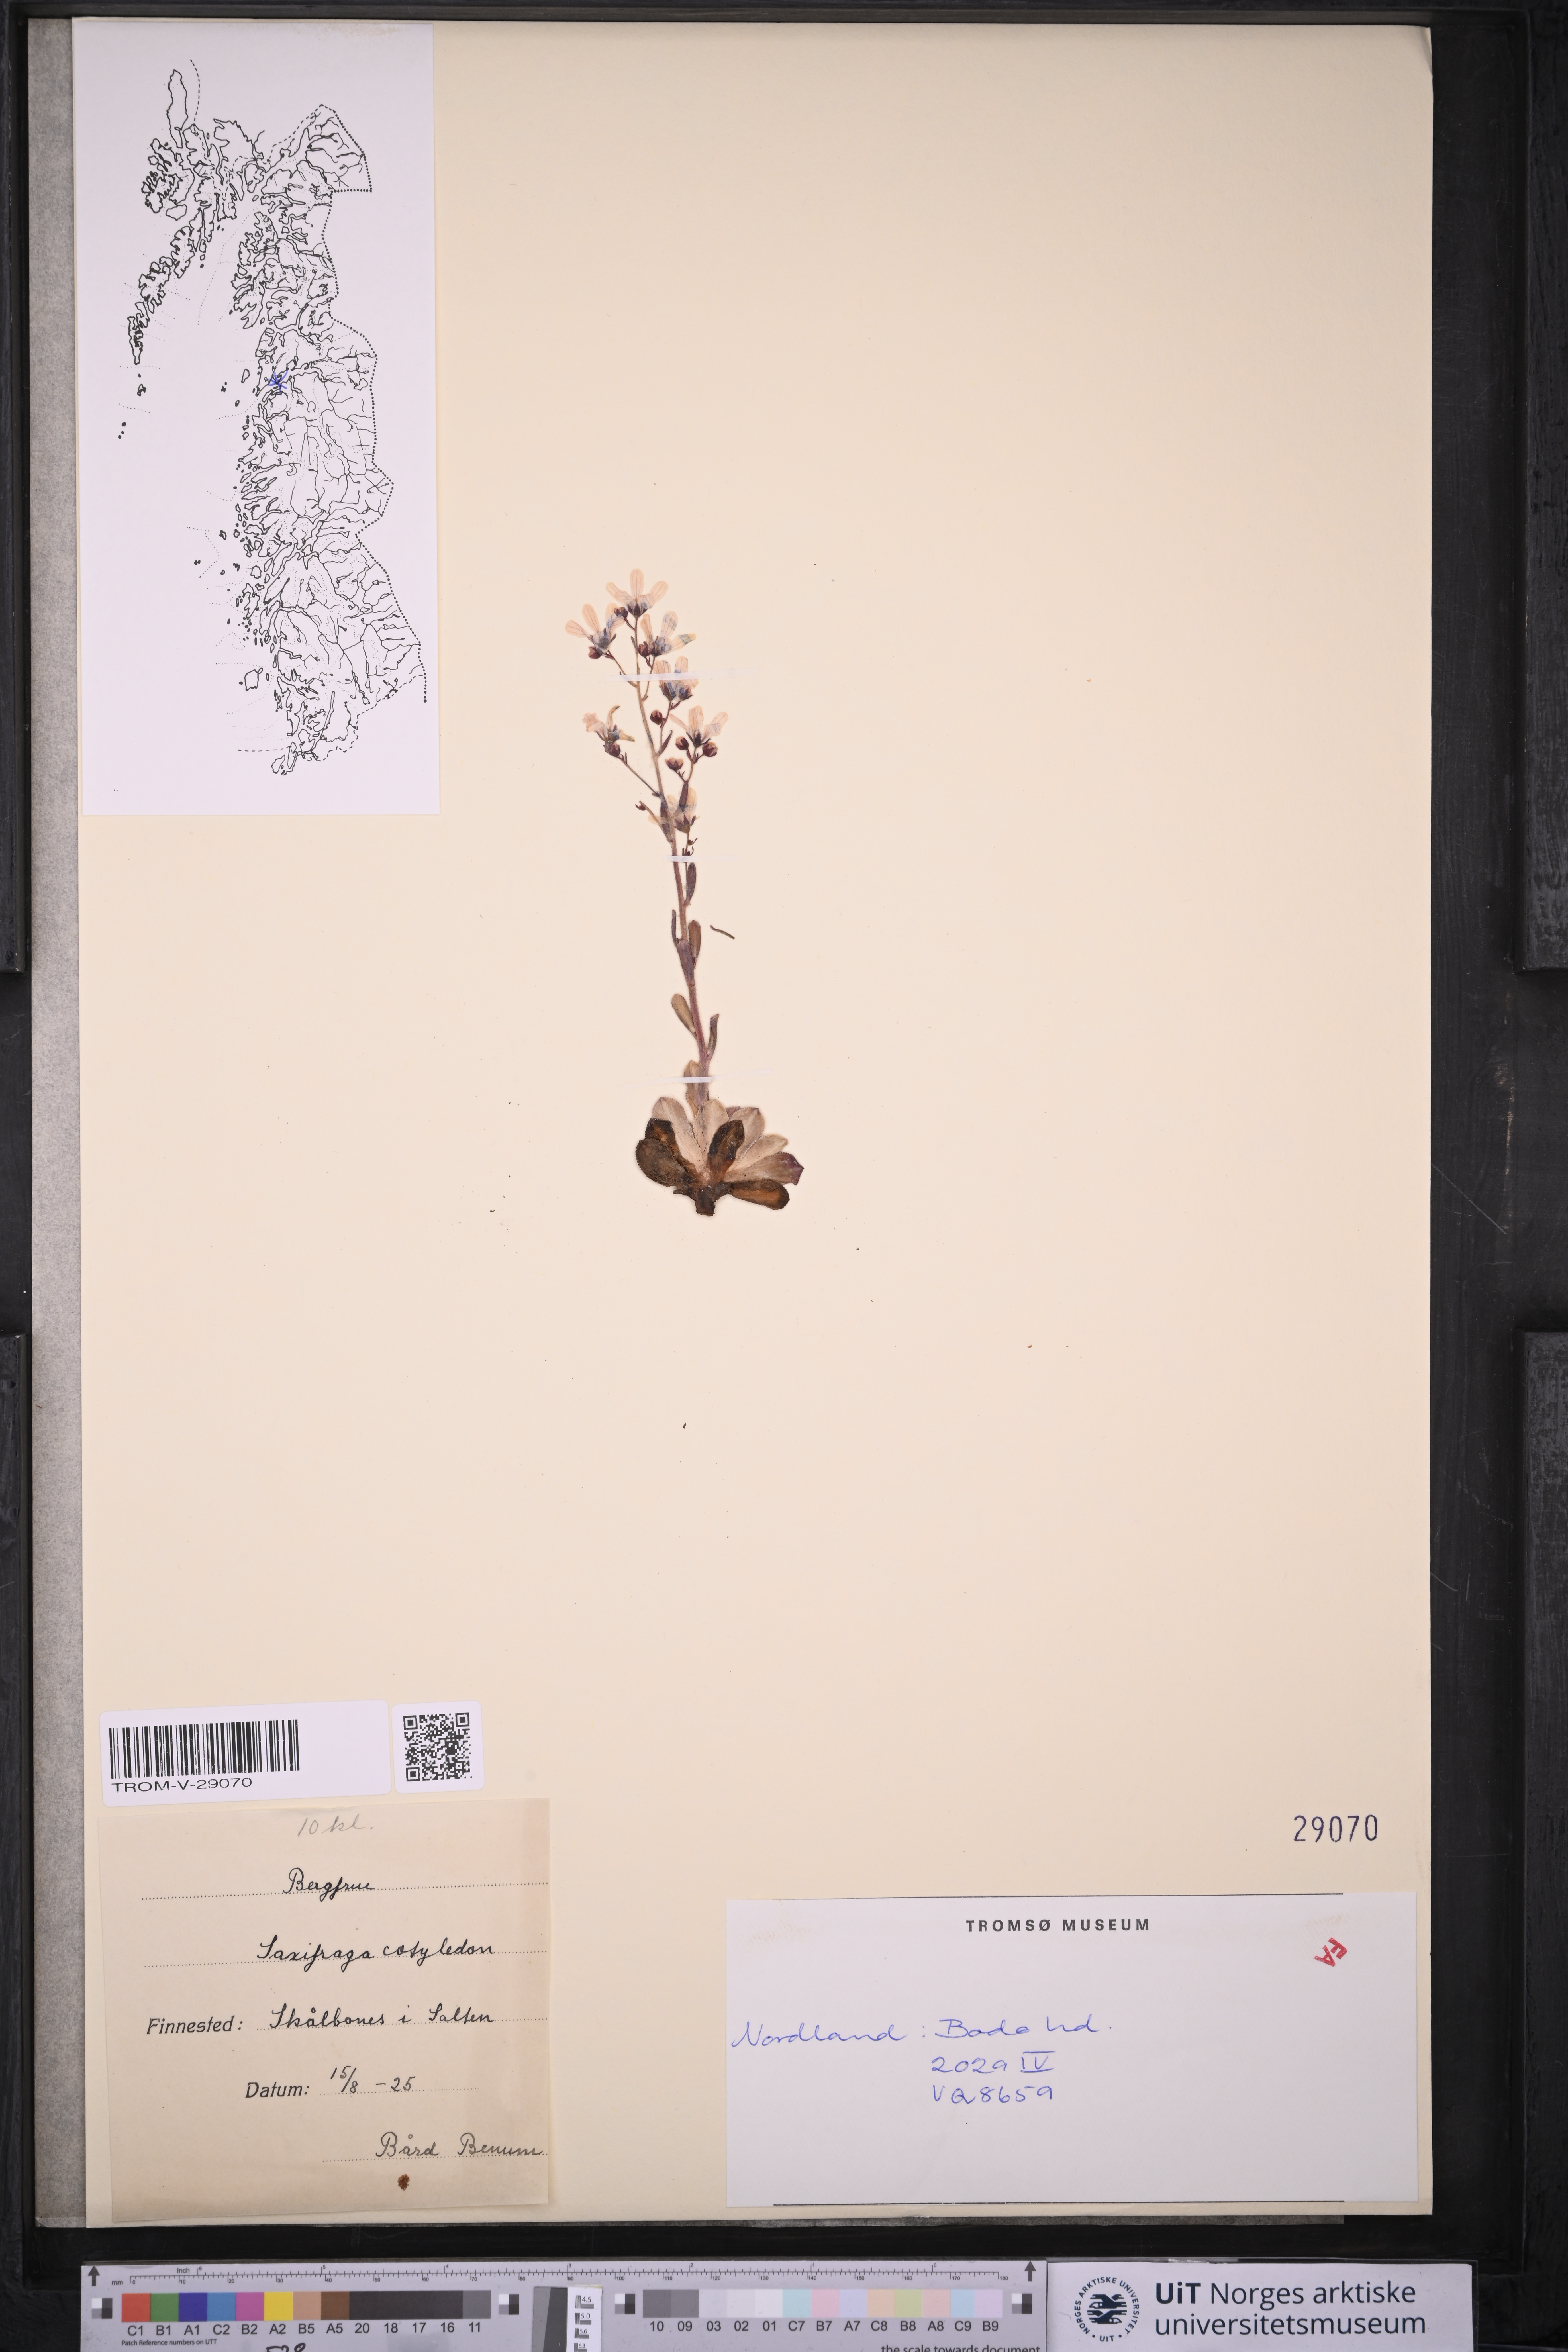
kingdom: Plantae
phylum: Tracheophyta
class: Magnoliopsida
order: Saxifragales
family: Saxifragaceae
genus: Saxifraga
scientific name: Saxifraga cotyledon
